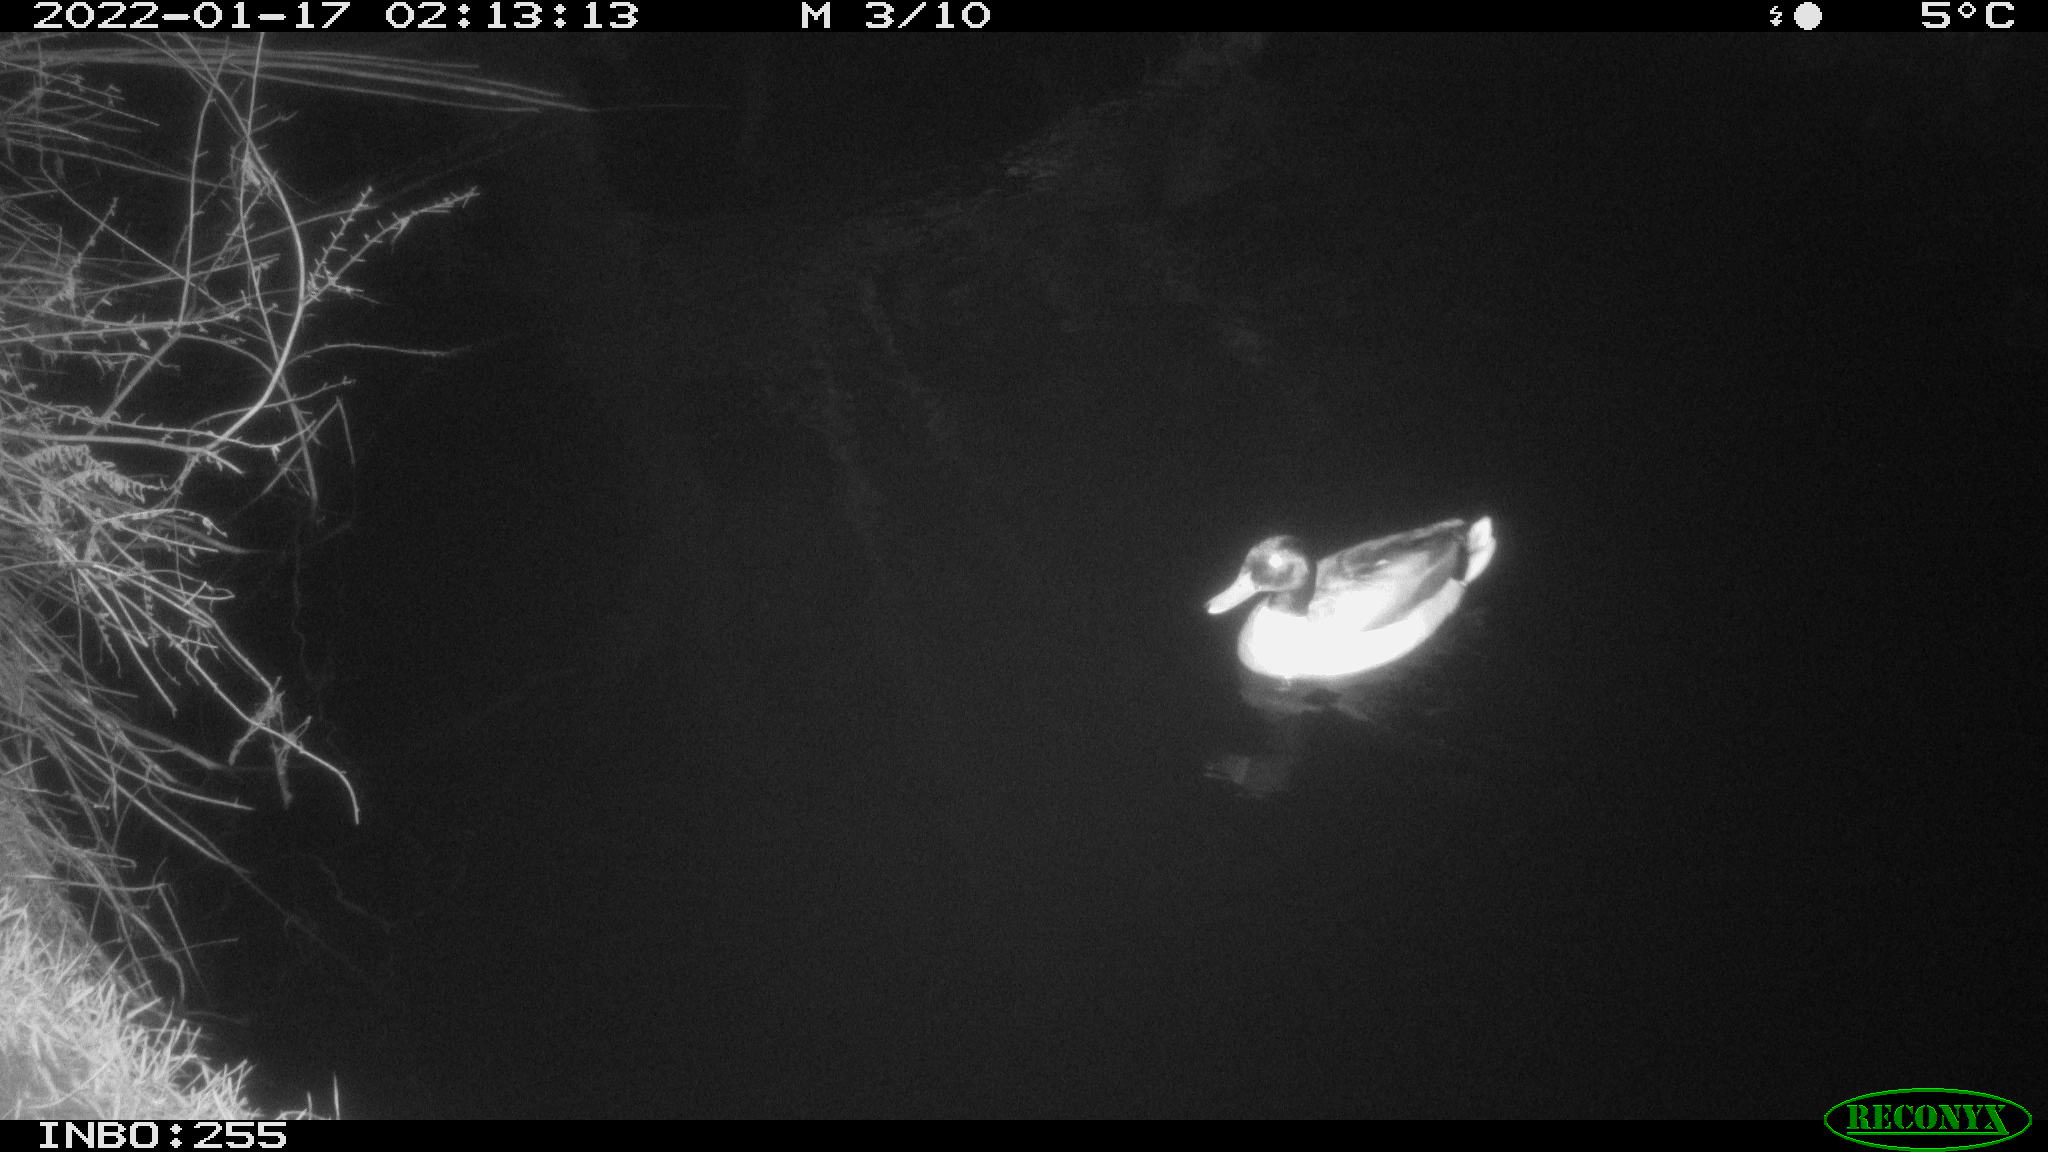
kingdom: Animalia
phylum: Chordata
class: Aves
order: Anseriformes
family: Anatidae
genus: Anas
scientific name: Anas
